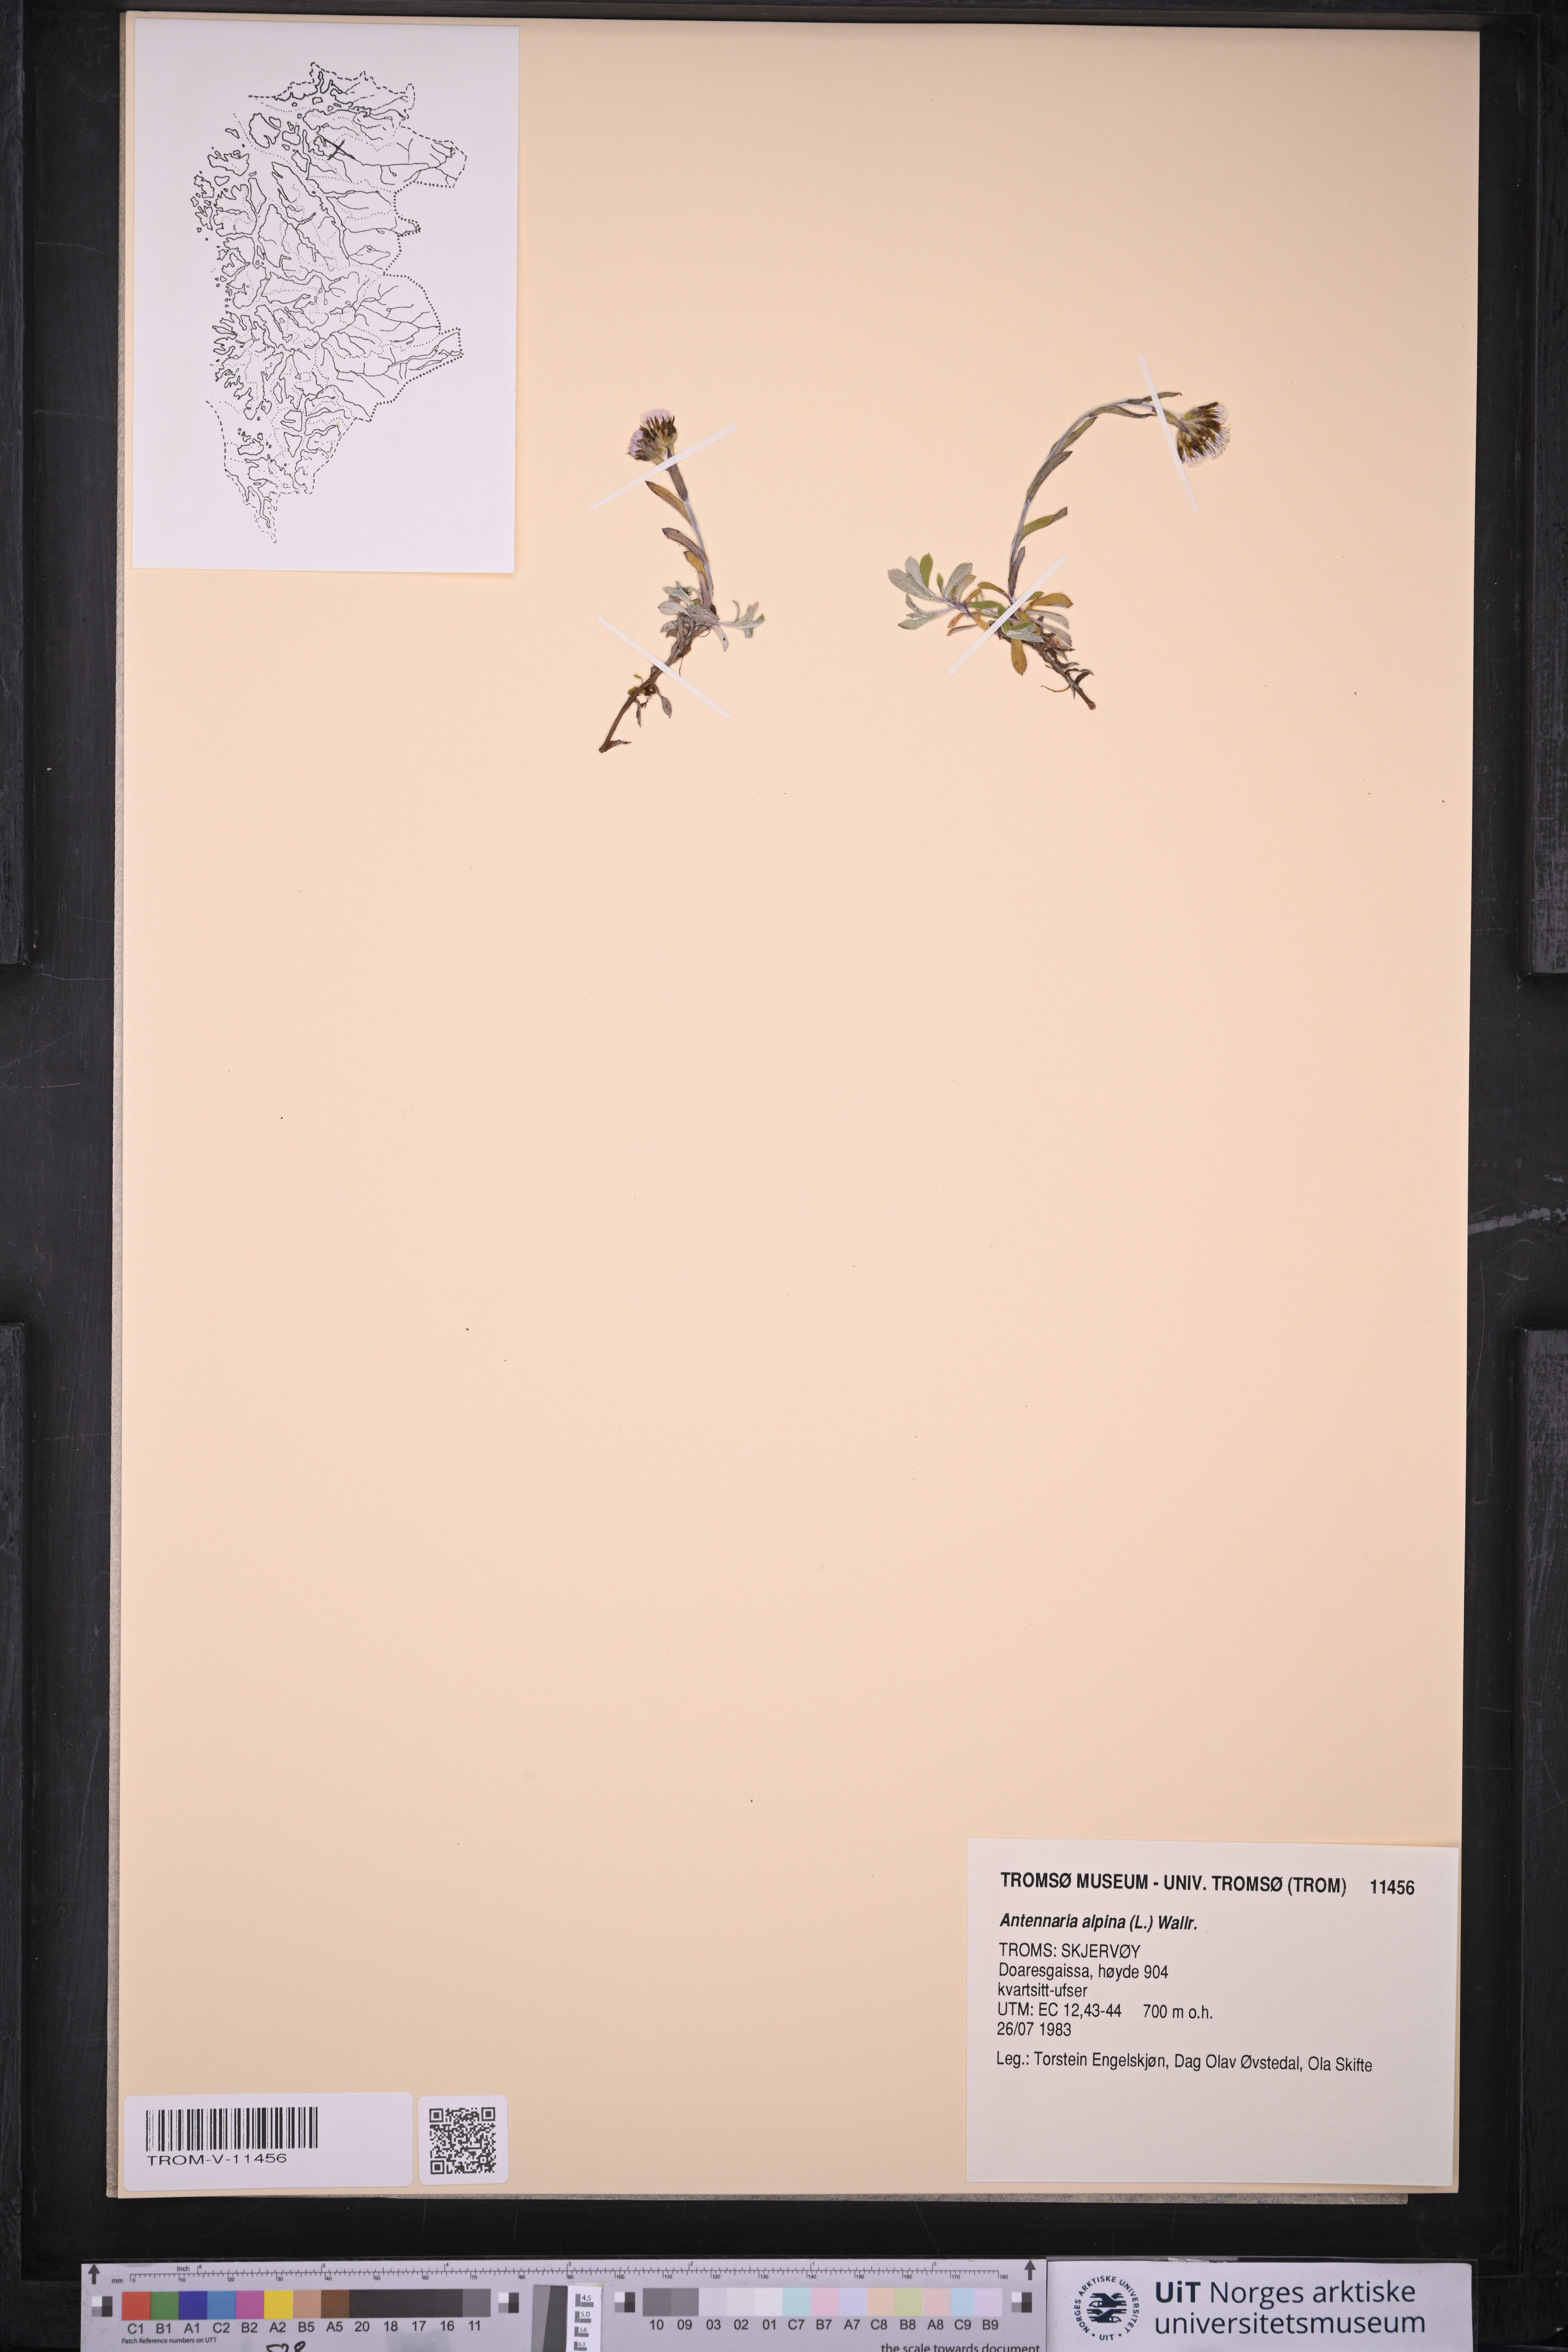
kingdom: Plantae
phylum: Tracheophyta
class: Magnoliopsida
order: Asterales
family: Asteraceae
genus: Antennaria
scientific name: Antennaria alpina
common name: Alpine pussytoes
